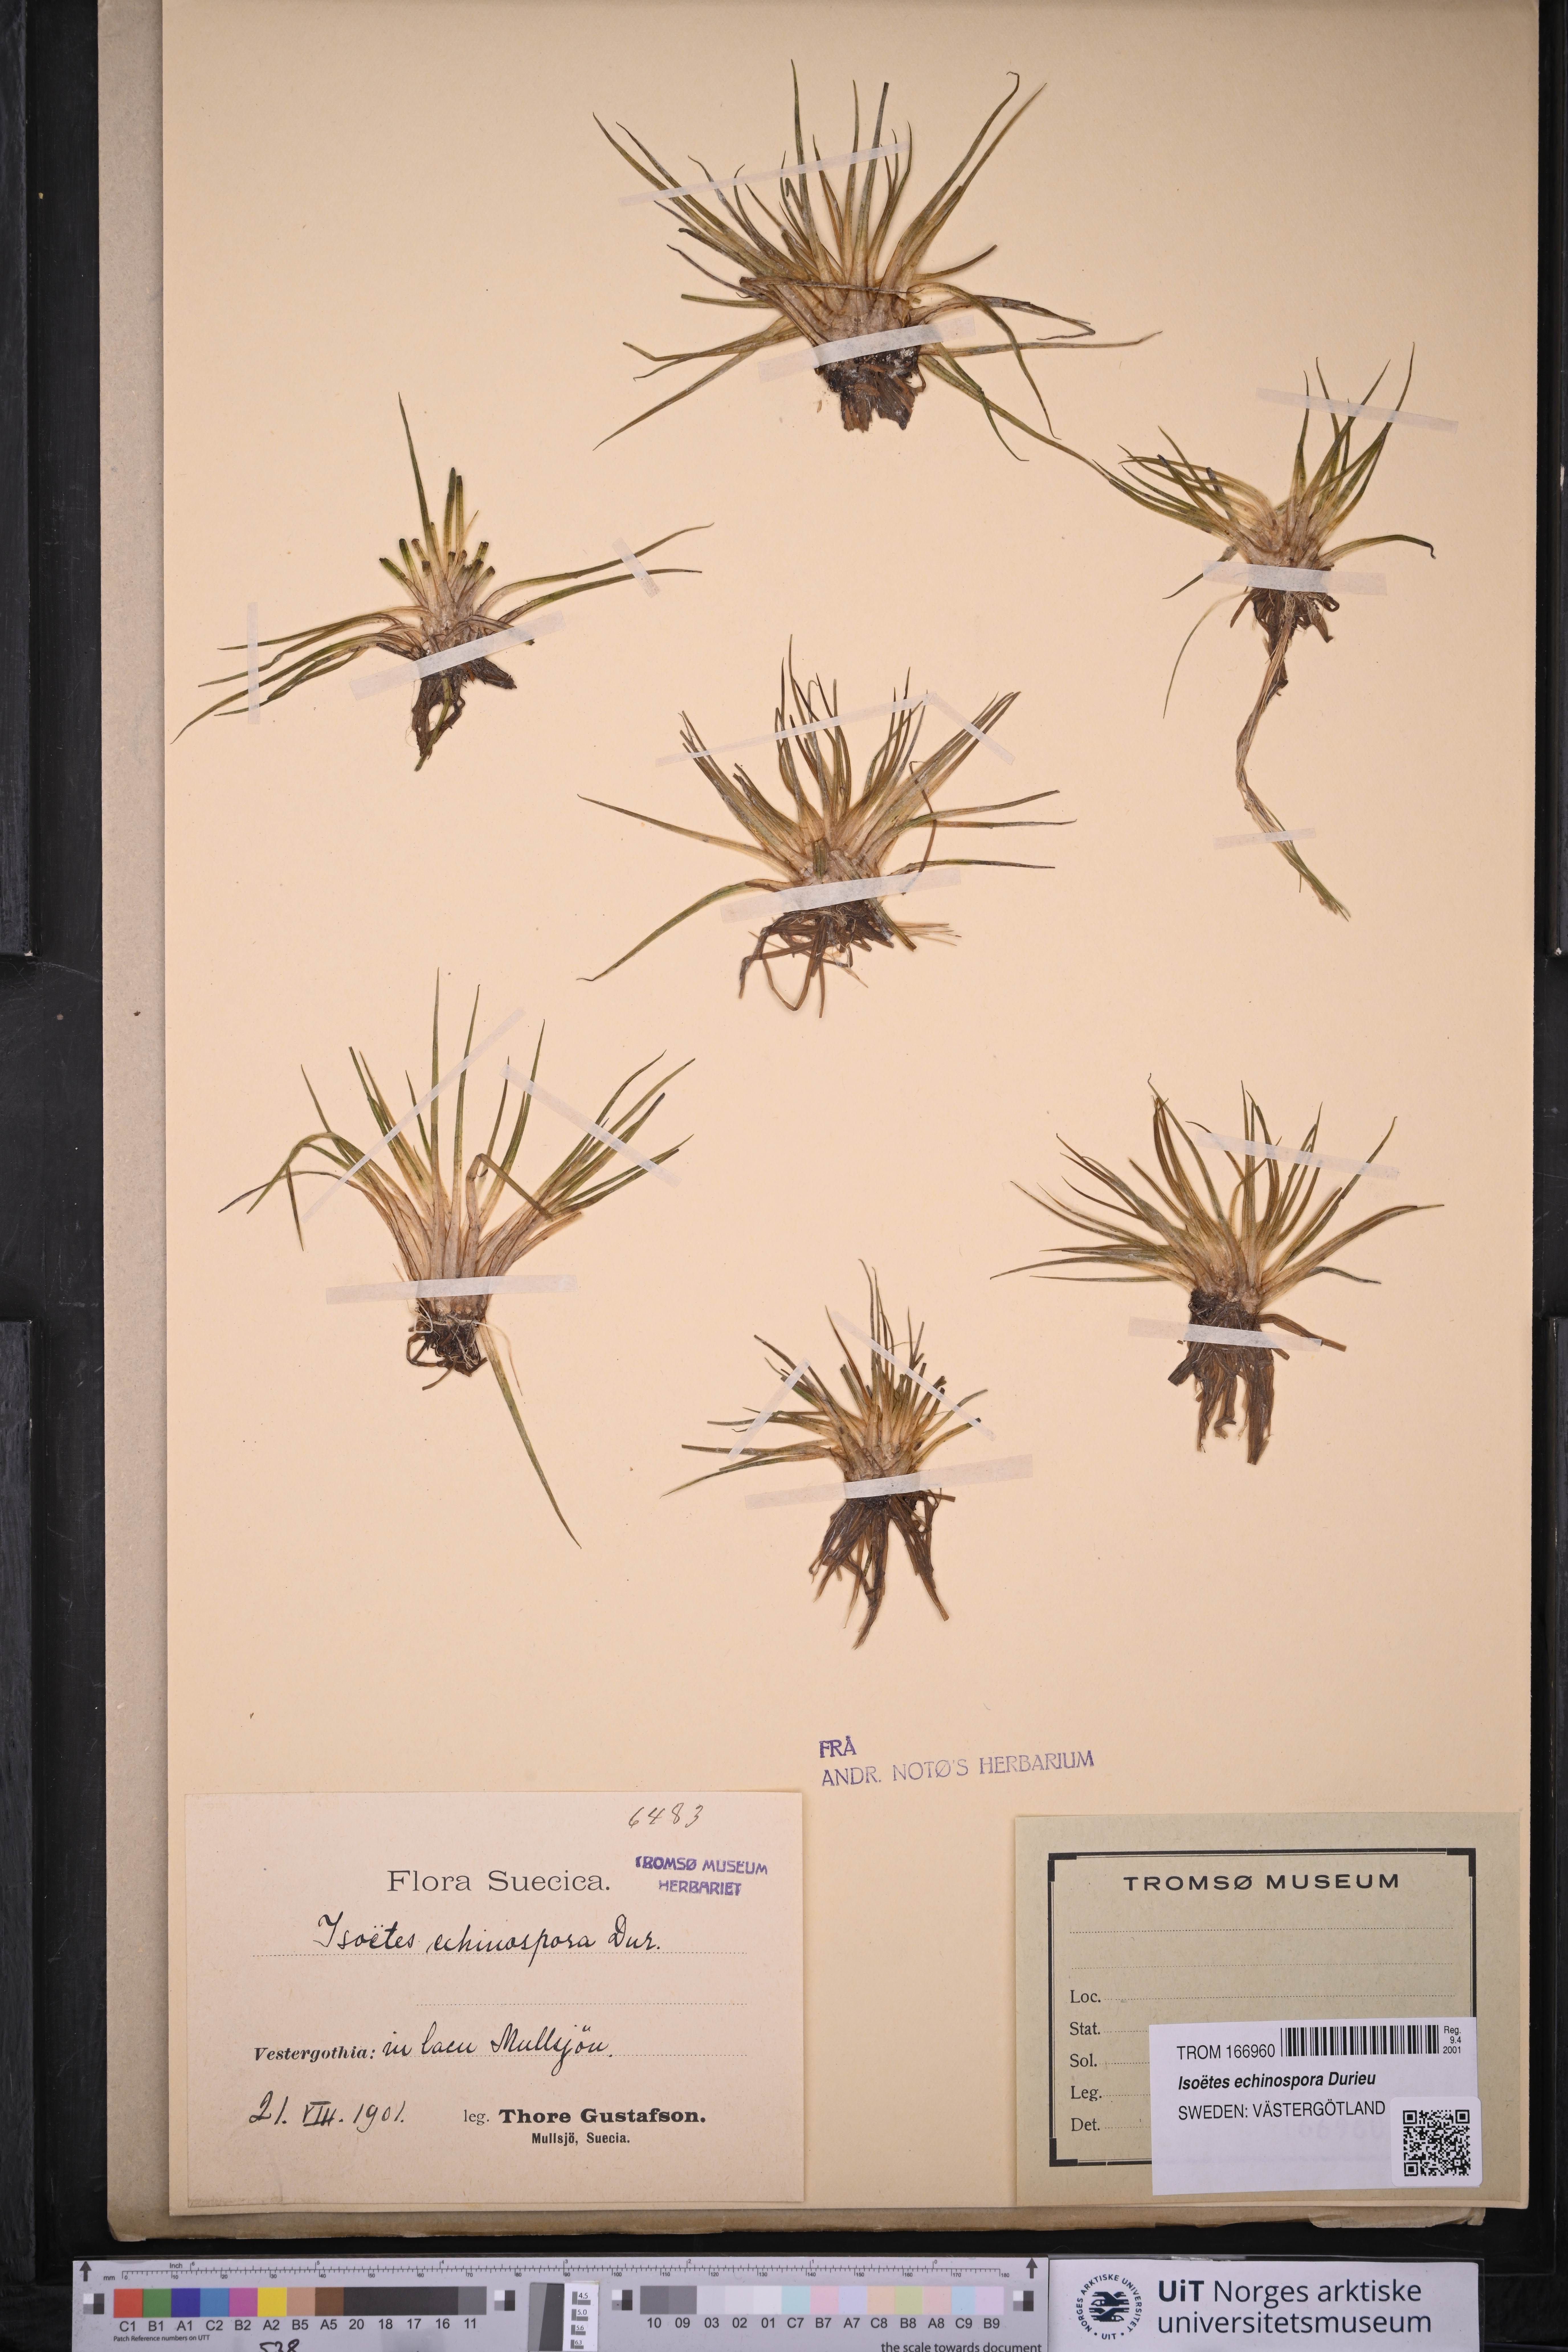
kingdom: Plantae
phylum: Tracheophyta
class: Lycopodiopsida
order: Isoetales
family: Isoetaceae
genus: Isoetes
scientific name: Isoetes echinospora
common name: Spring quillwort
